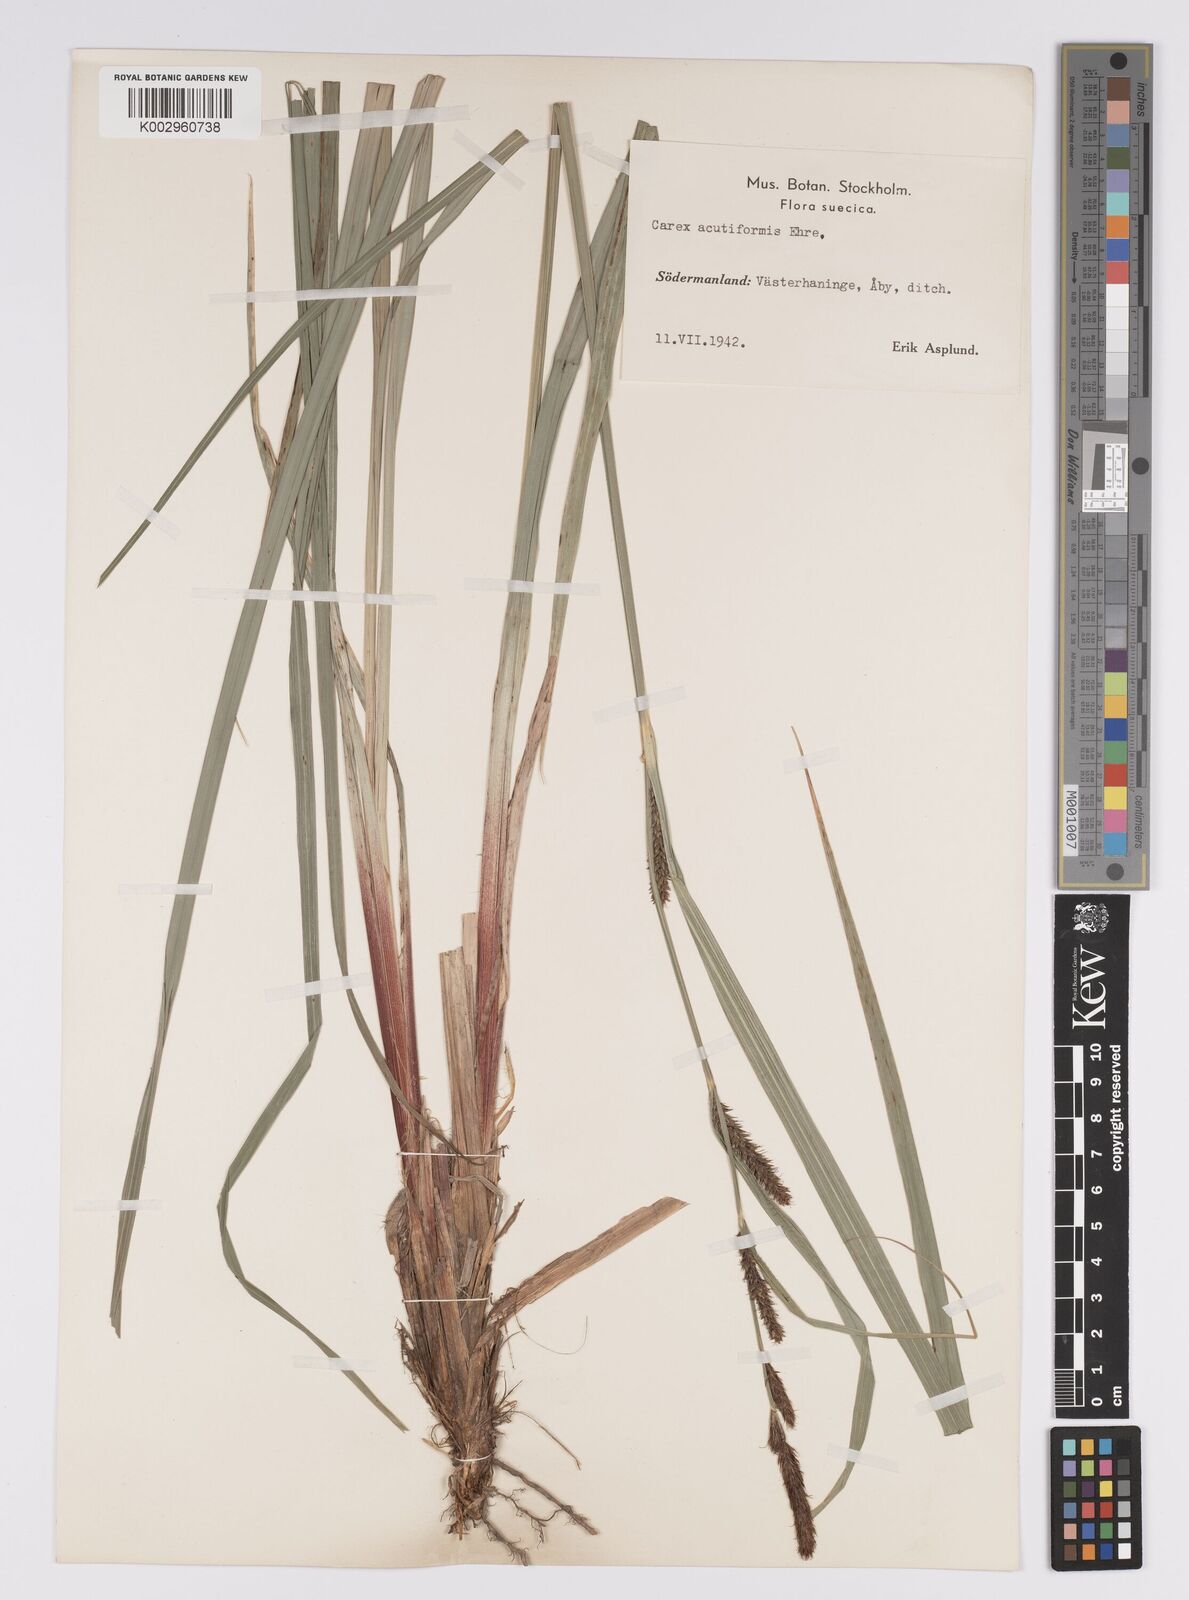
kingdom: Plantae
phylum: Tracheophyta
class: Liliopsida
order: Poales
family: Cyperaceae
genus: Carex
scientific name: Carex acutiformis
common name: Lesser pond-sedge
